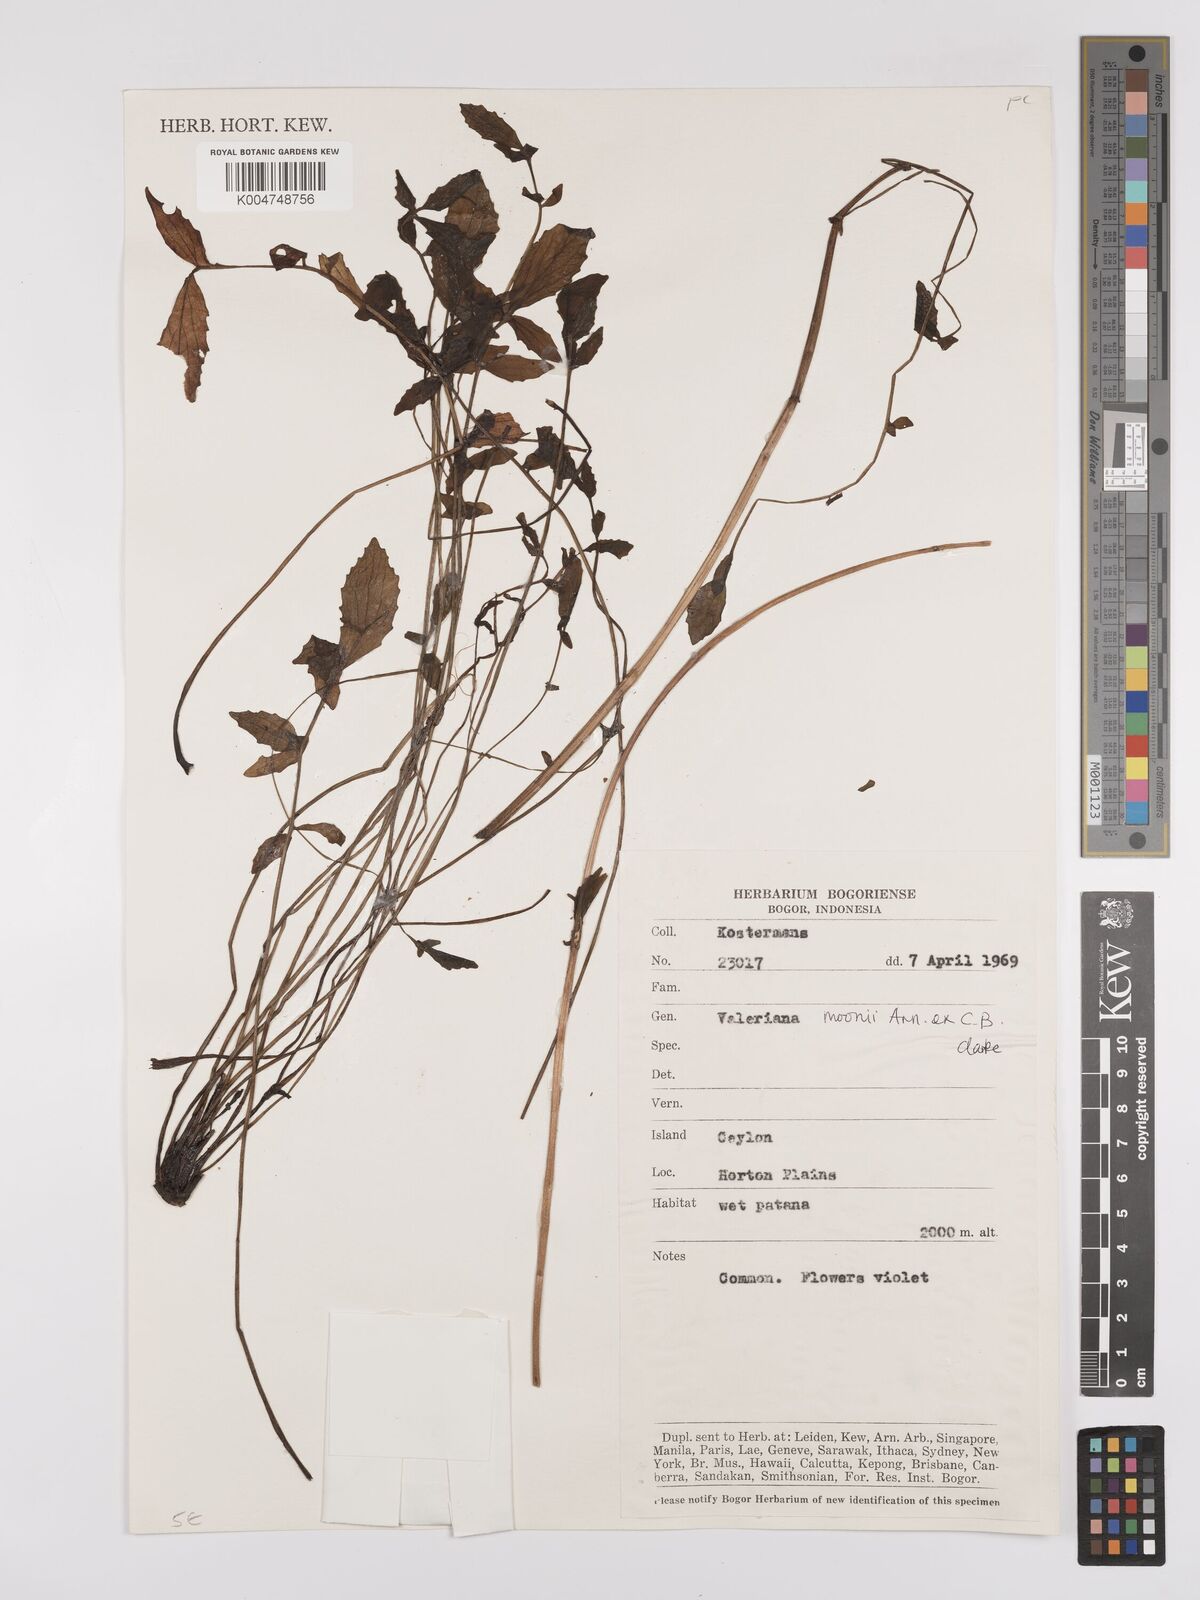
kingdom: Plantae
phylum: Tracheophyta
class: Magnoliopsida
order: Dipsacales
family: Caprifoliaceae
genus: Valeriana
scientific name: Valeriana moonii
